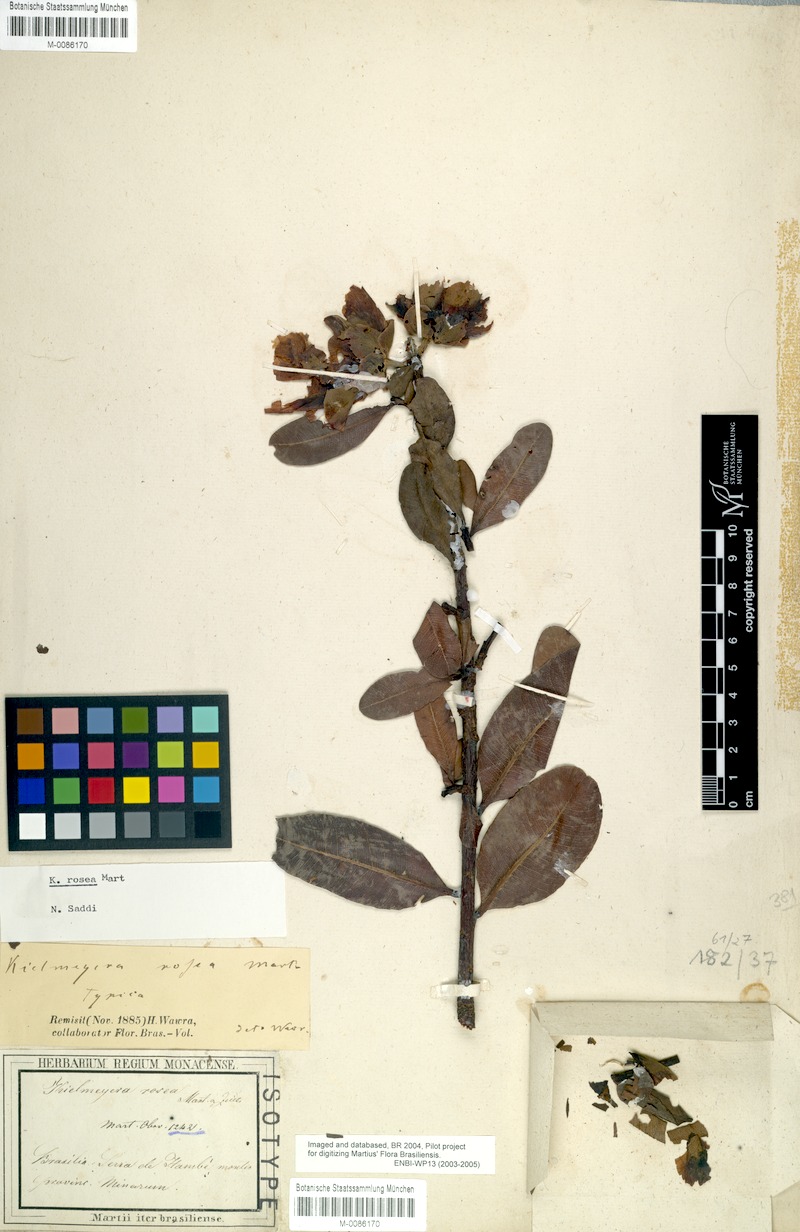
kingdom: Plantae
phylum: Tracheophyta
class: Magnoliopsida
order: Malpighiales
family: Calophyllaceae
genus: Kielmeyera
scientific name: Kielmeyera rosea
